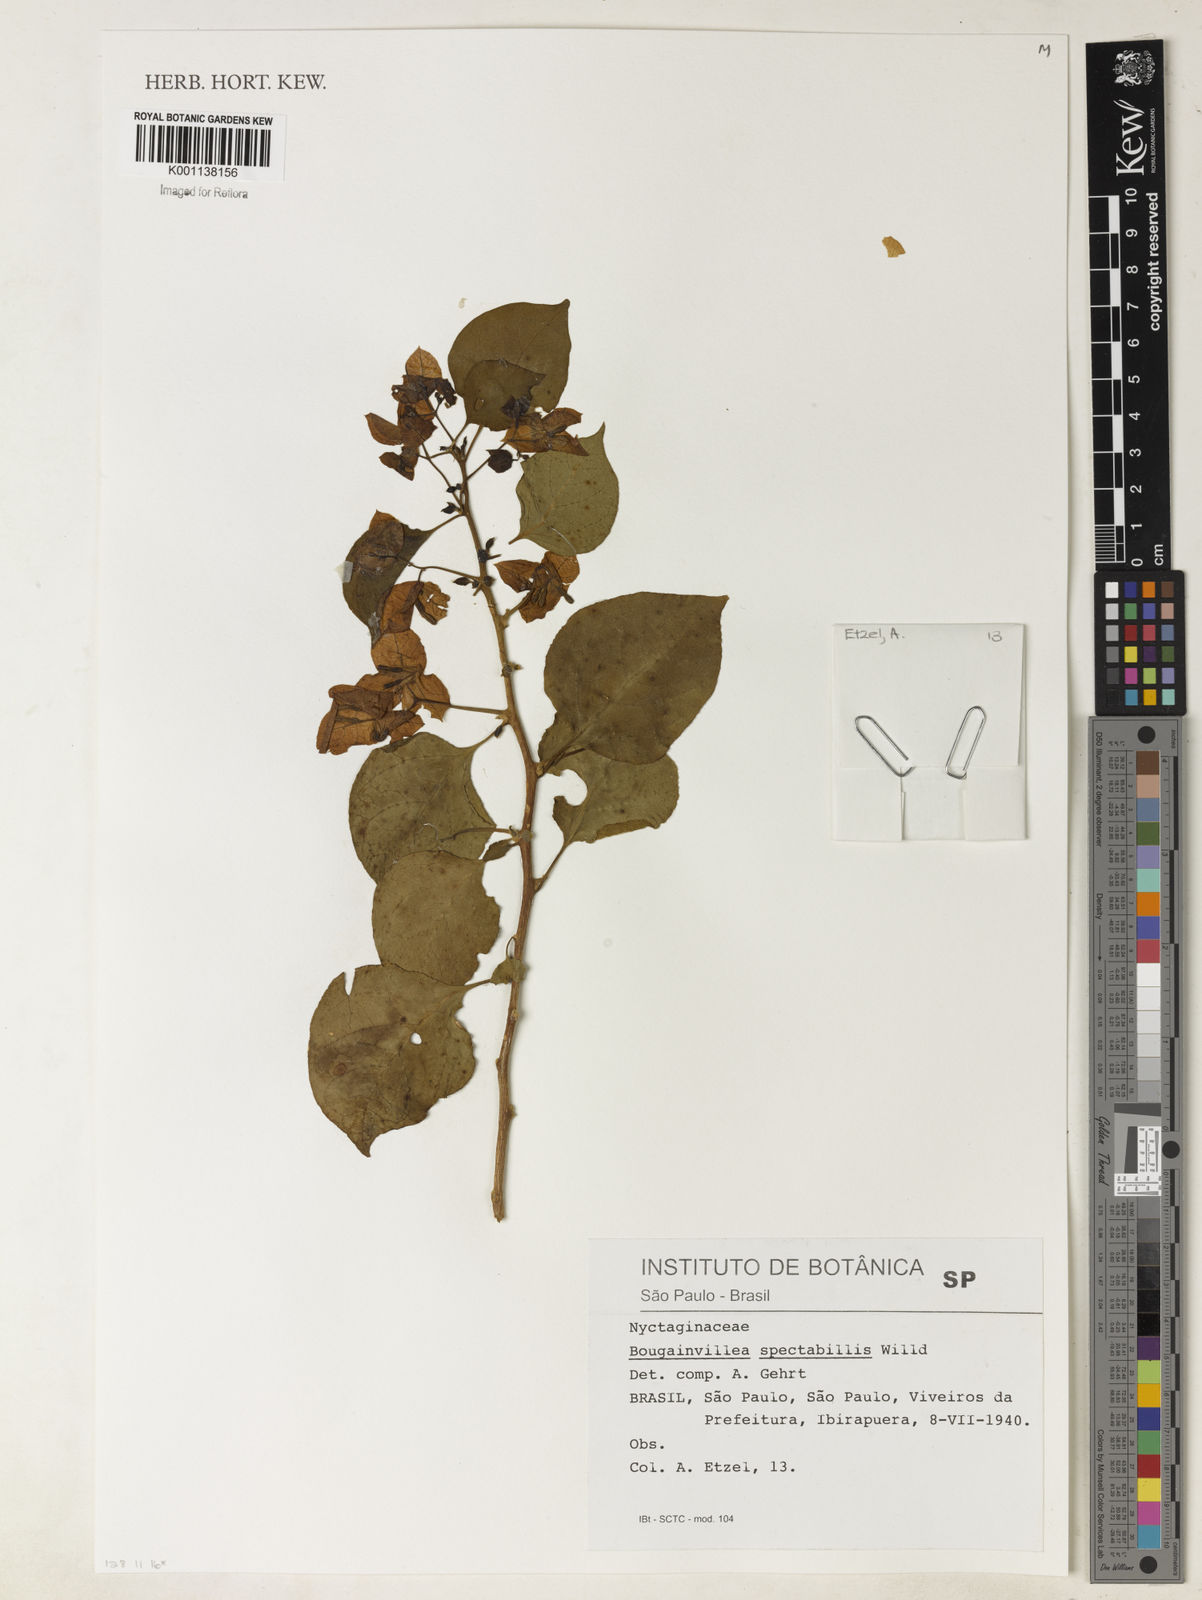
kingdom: Plantae
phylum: Tracheophyta
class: Magnoliopsida
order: Caryophyllales
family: Nyctaginaceae
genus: Bougainvillea
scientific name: Bougainvillea spectabilis
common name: Great bougainvillea
